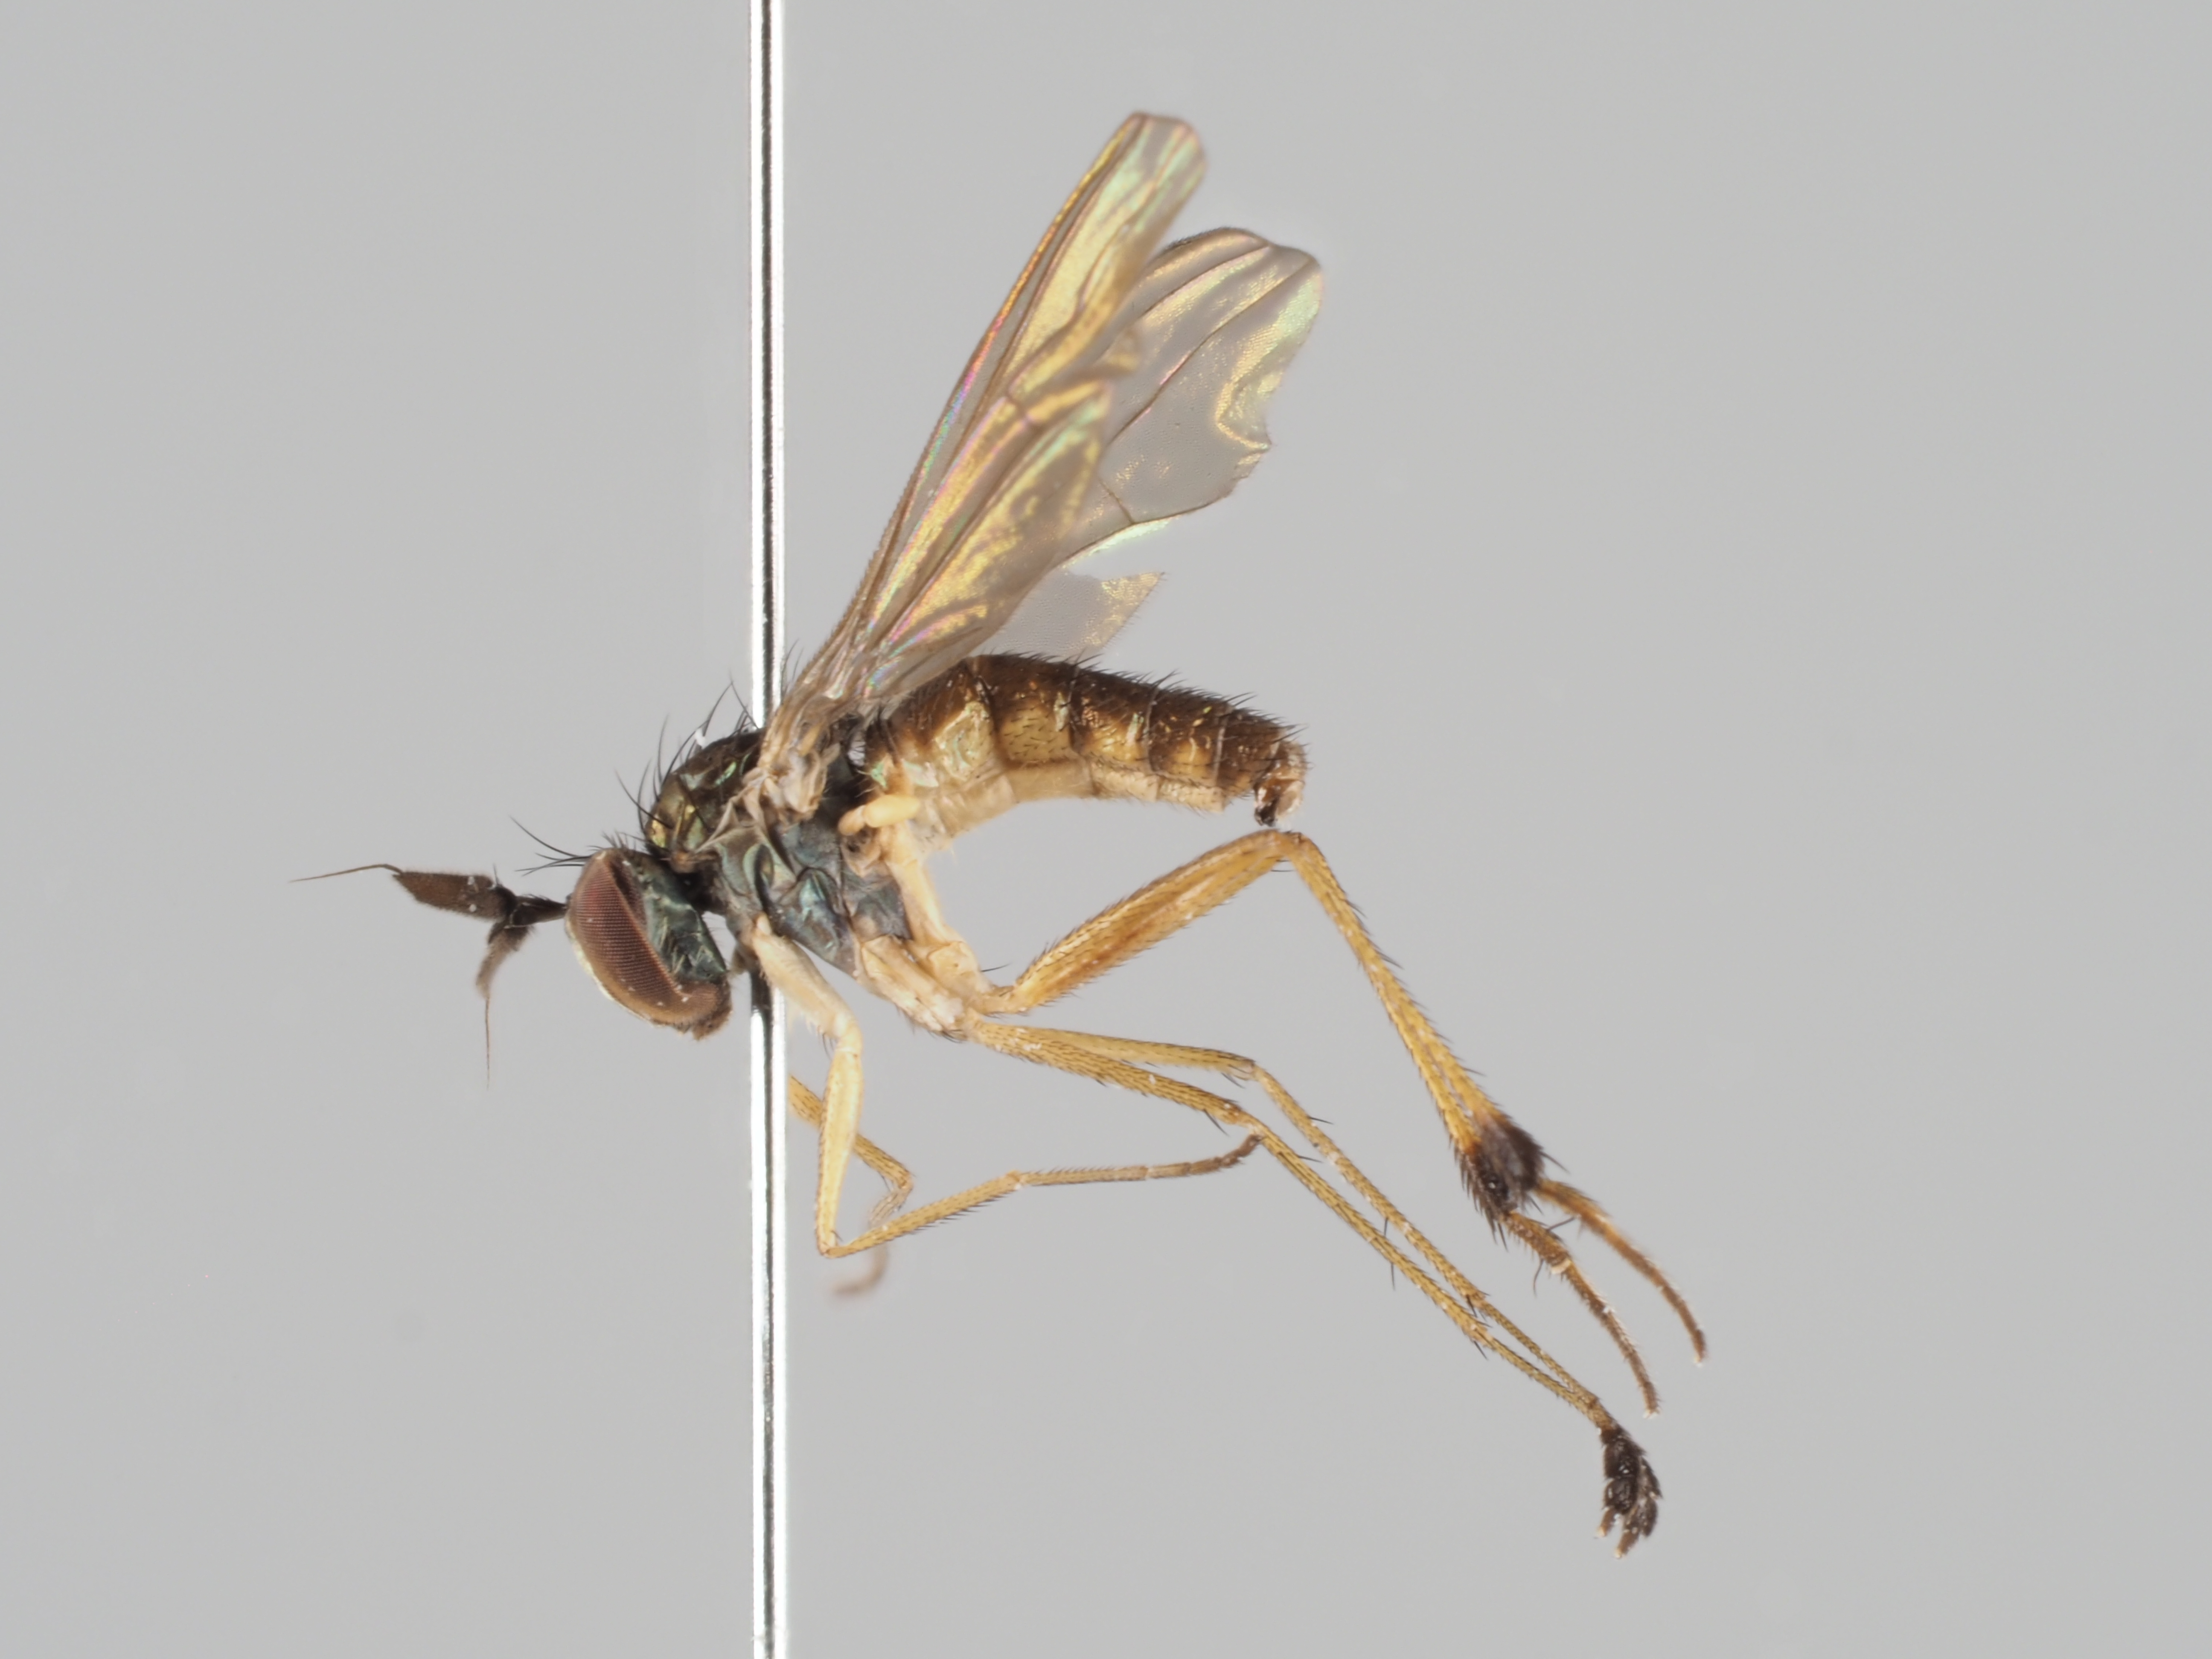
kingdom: Animalia
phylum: Arthropoda
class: Insecta
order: Diptera
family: Dolichopodidae
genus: Syntormon
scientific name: Syntormon tarsatus
